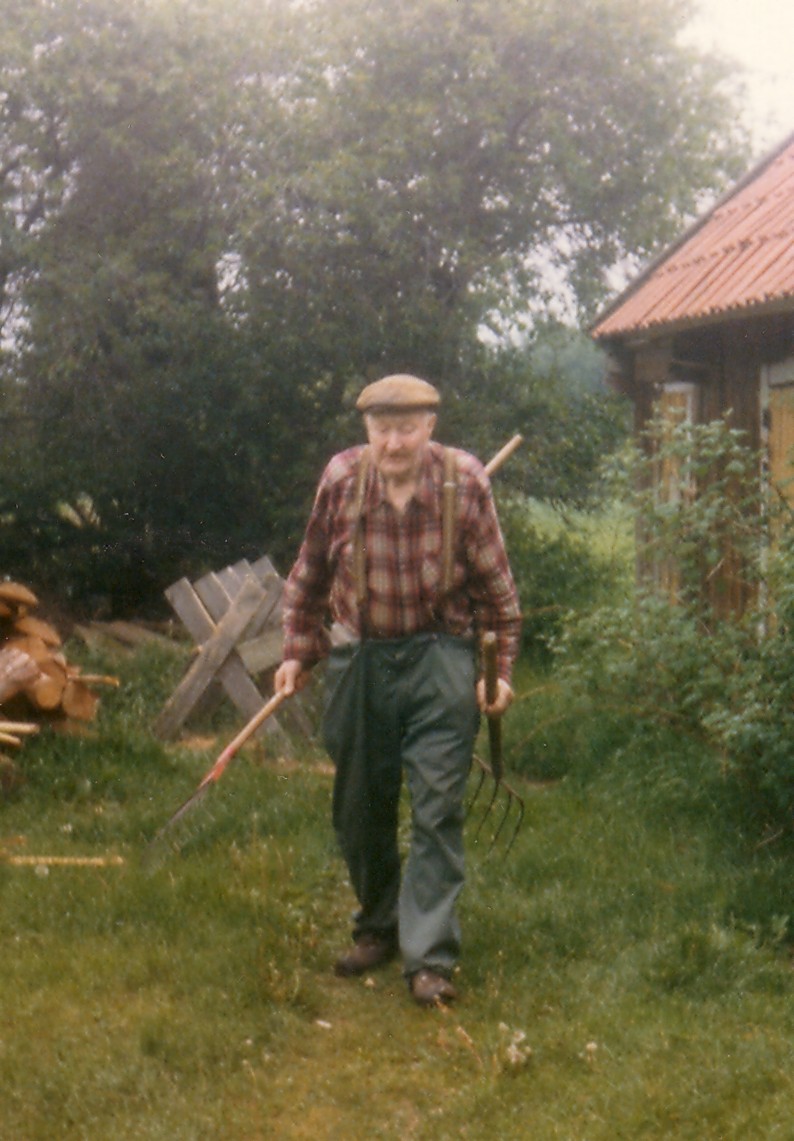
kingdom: Plantae
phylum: Tracheophyta
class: Magnoliopsida
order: Fabales
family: Fabaceae
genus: Vicia
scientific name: Vicia faba
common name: Broad bean
